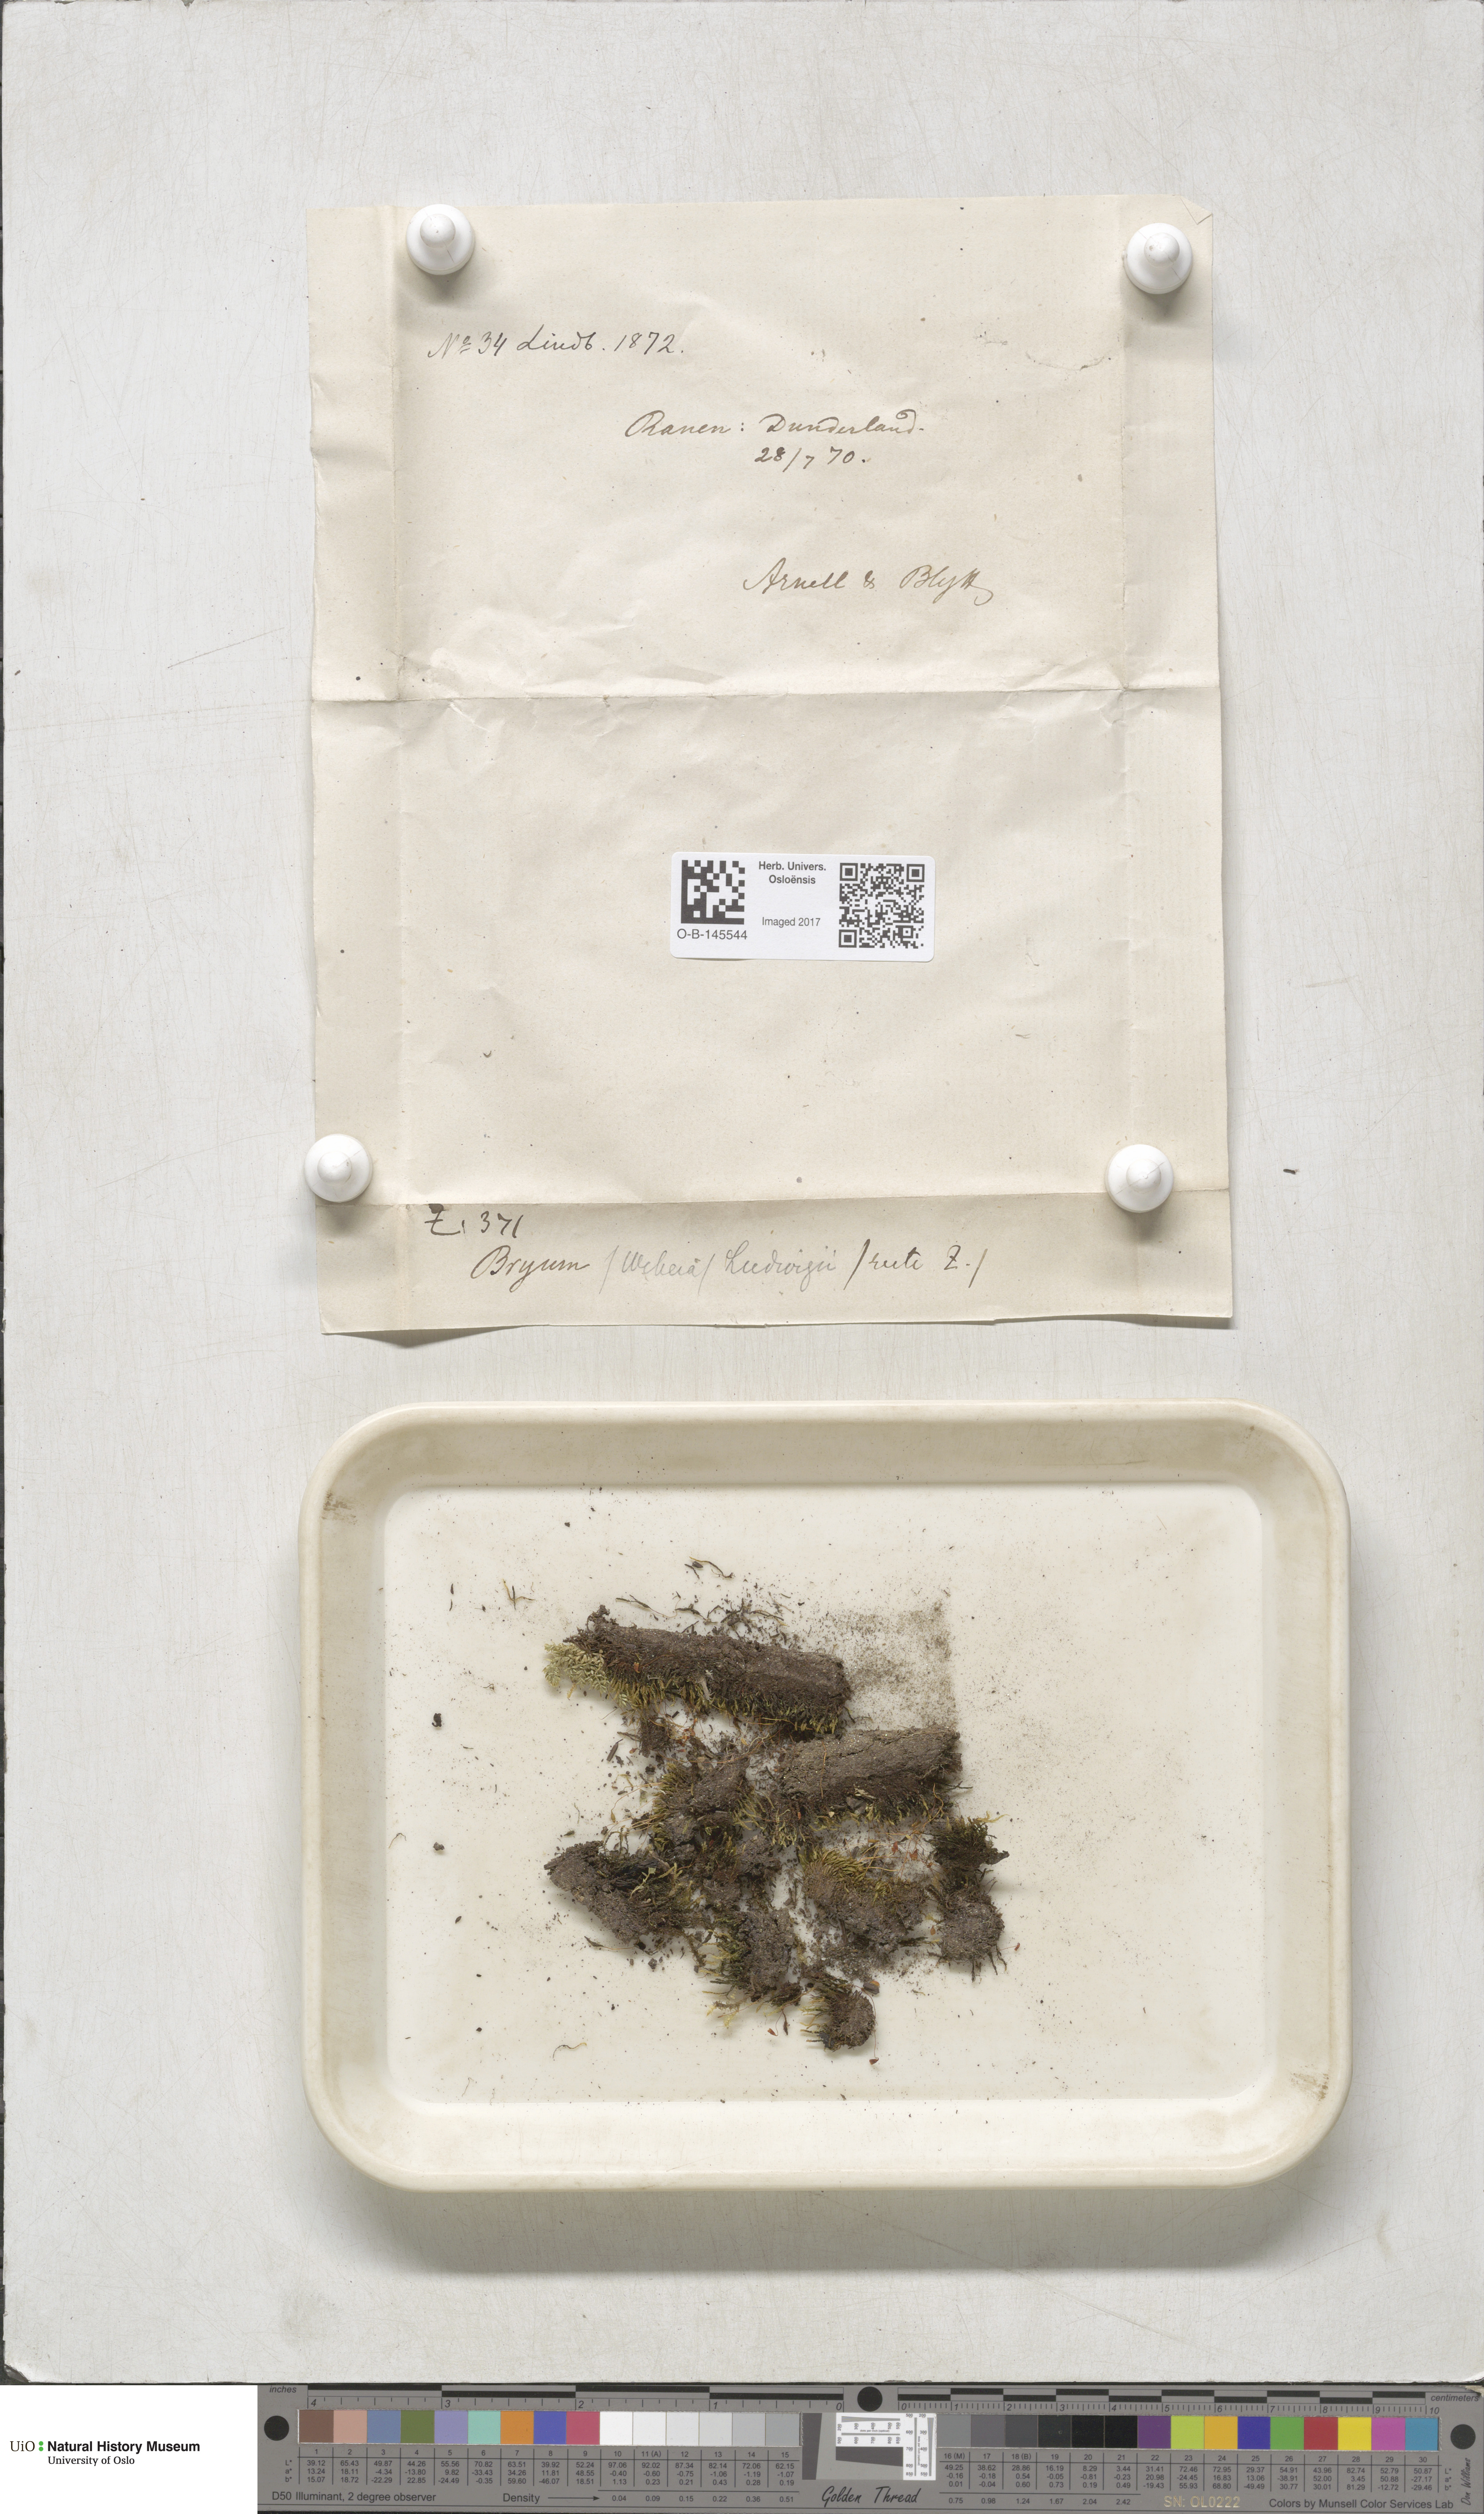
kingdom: Plantae
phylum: Bryophyta
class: Bryopsida
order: Bryales
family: Mniaceae
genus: Pohlia
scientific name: Pohlia ludwigii
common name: Ludwig's thread-moss
